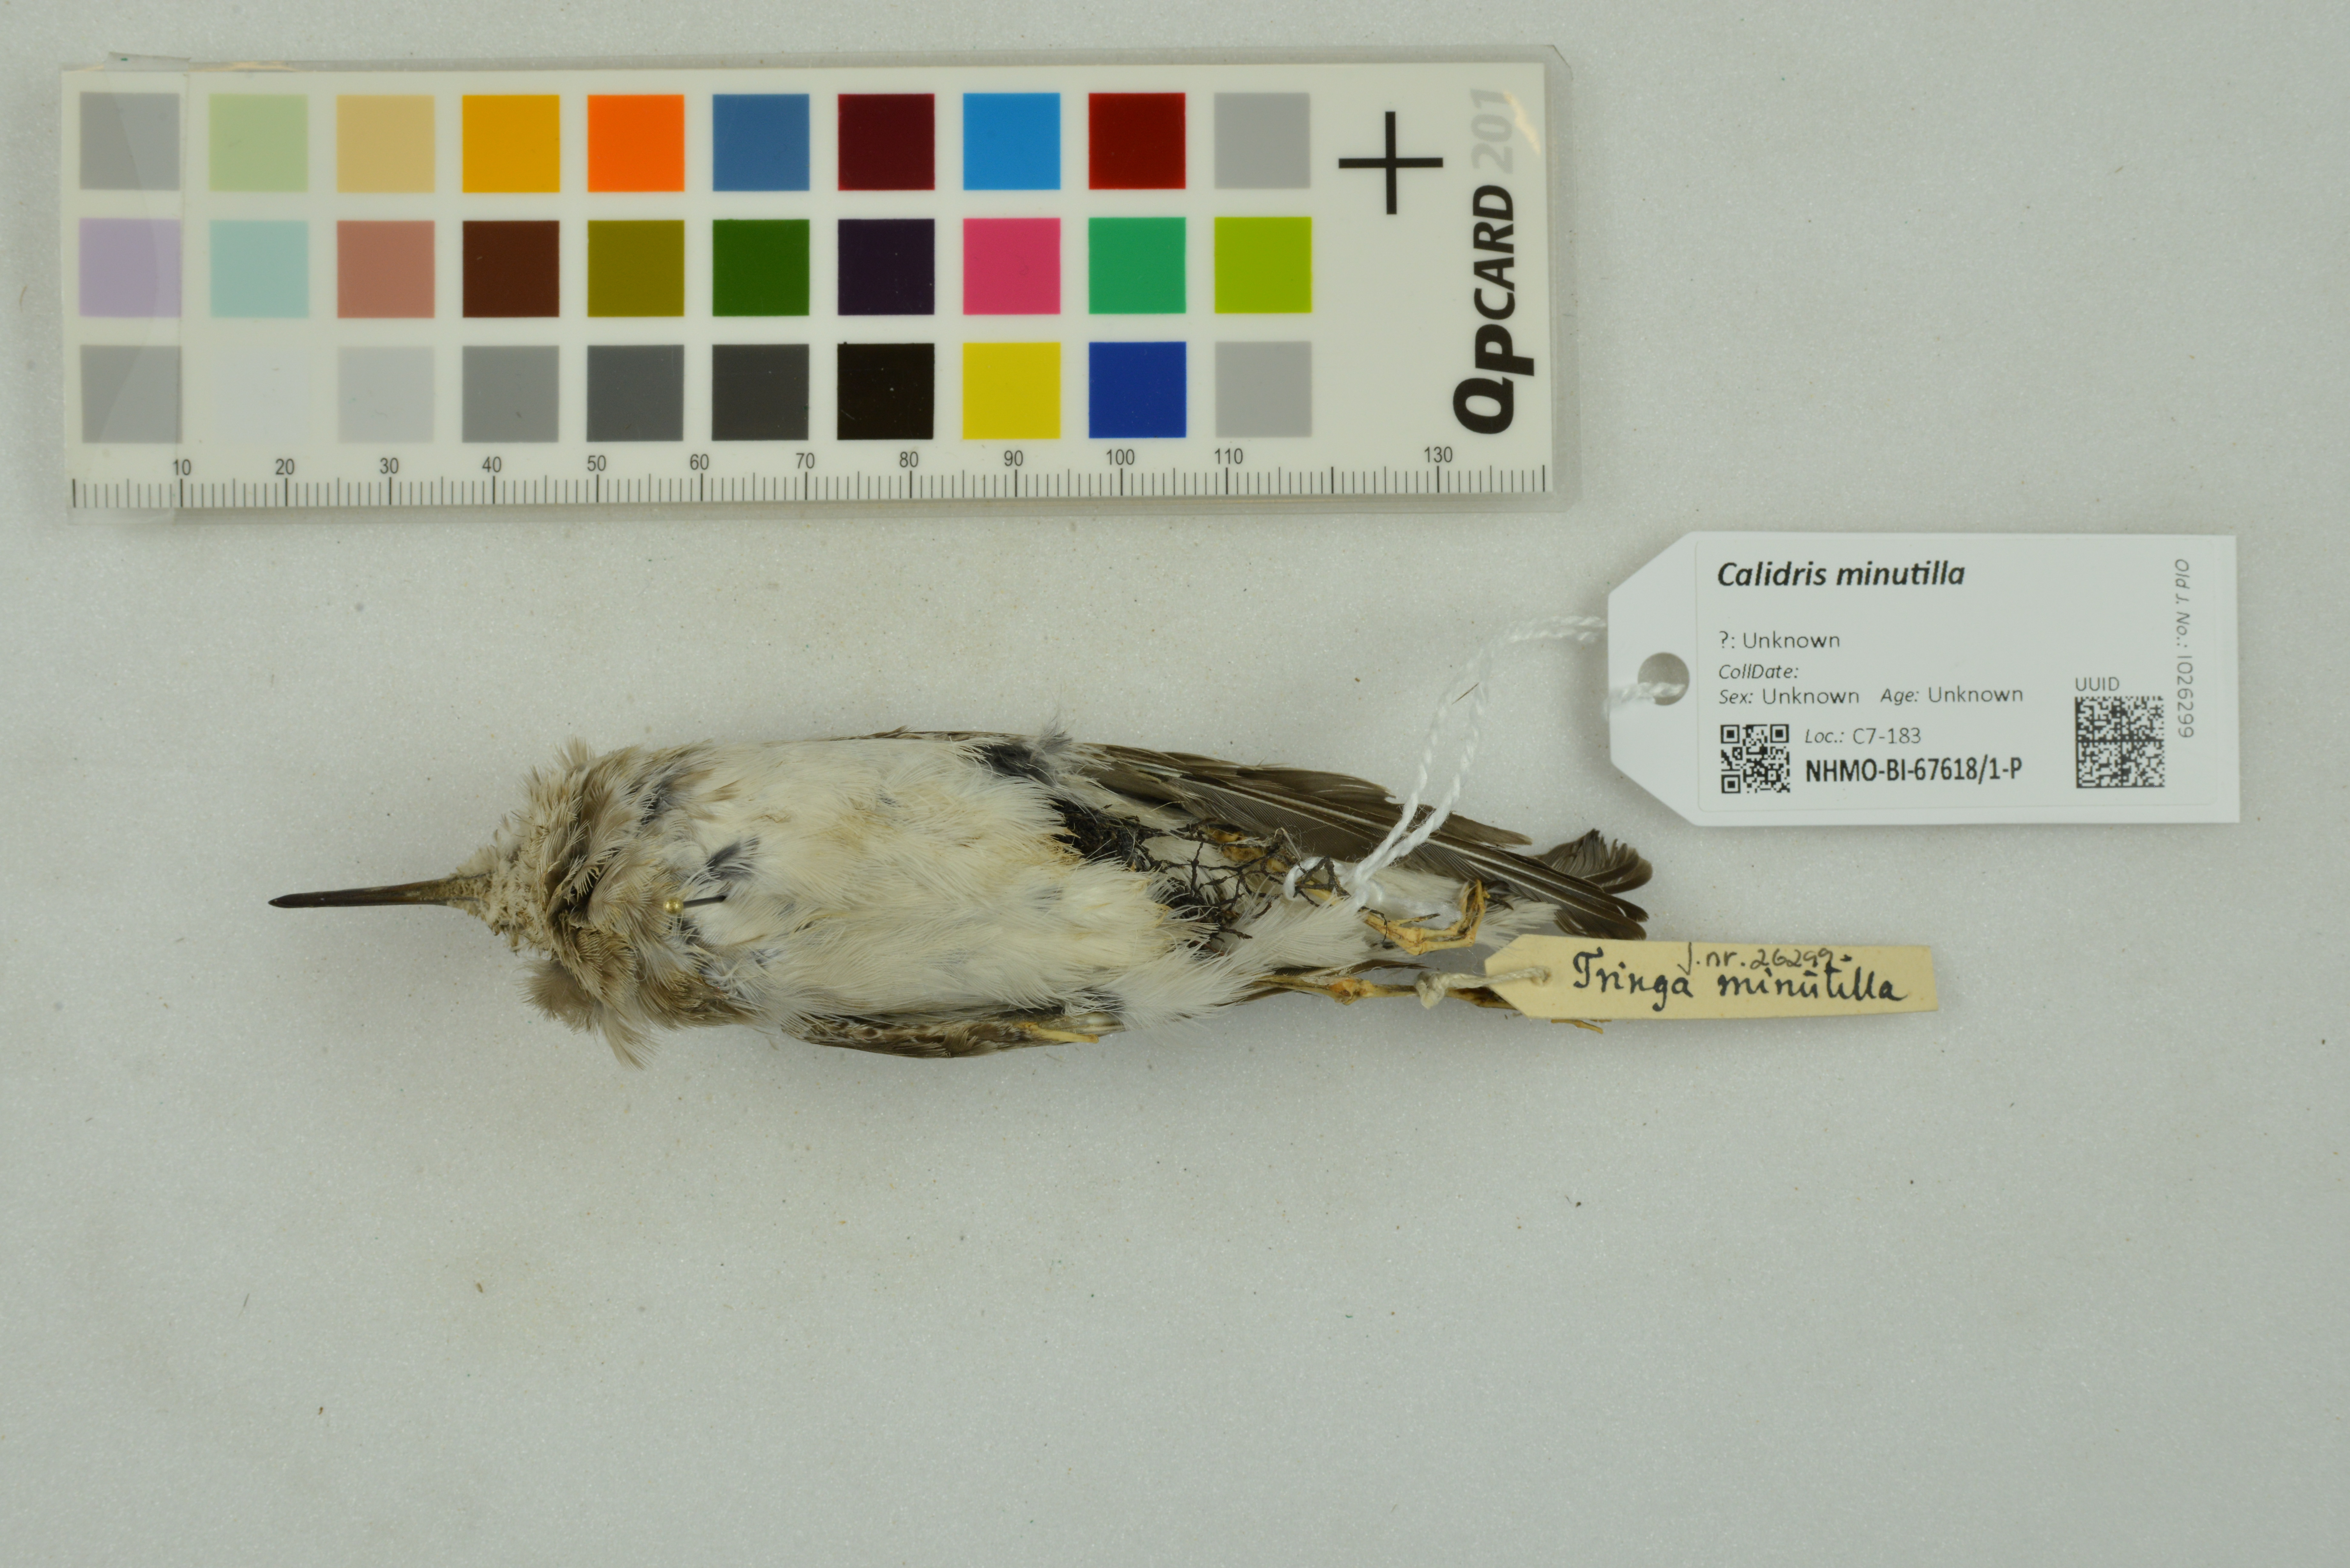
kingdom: Animalia
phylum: Chordata
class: Aves
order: Charadriiformes
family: Scolopacidae
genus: Calidris
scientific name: Calidris minutilla
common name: Least sandpiper
